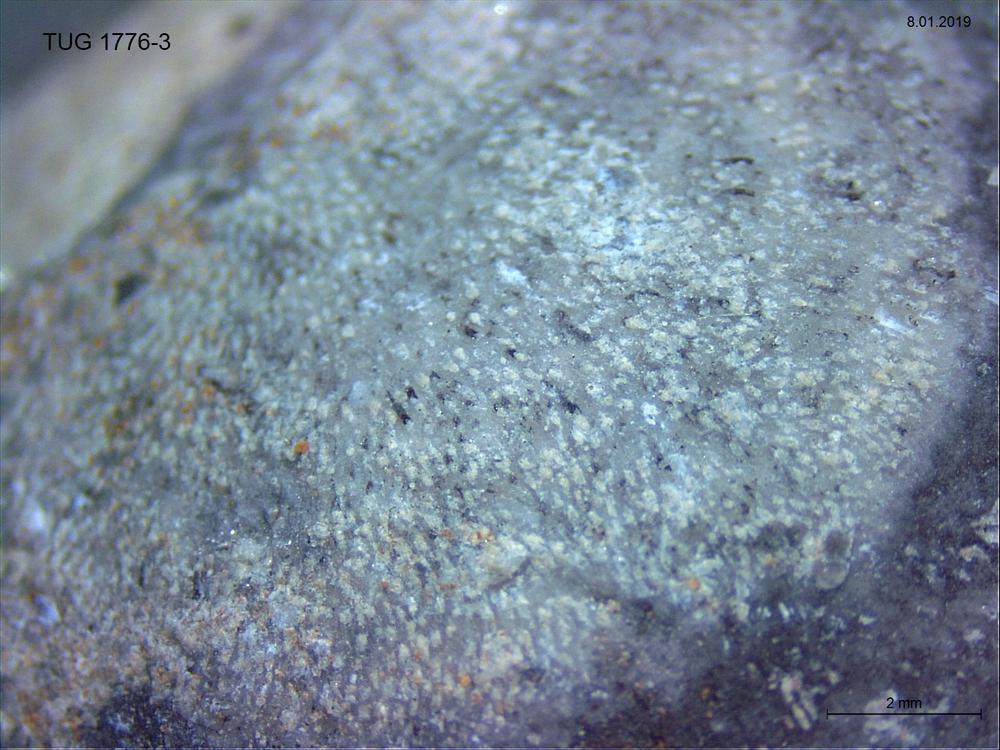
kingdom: Animalia
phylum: Bryozoa
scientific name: Bryozoa
